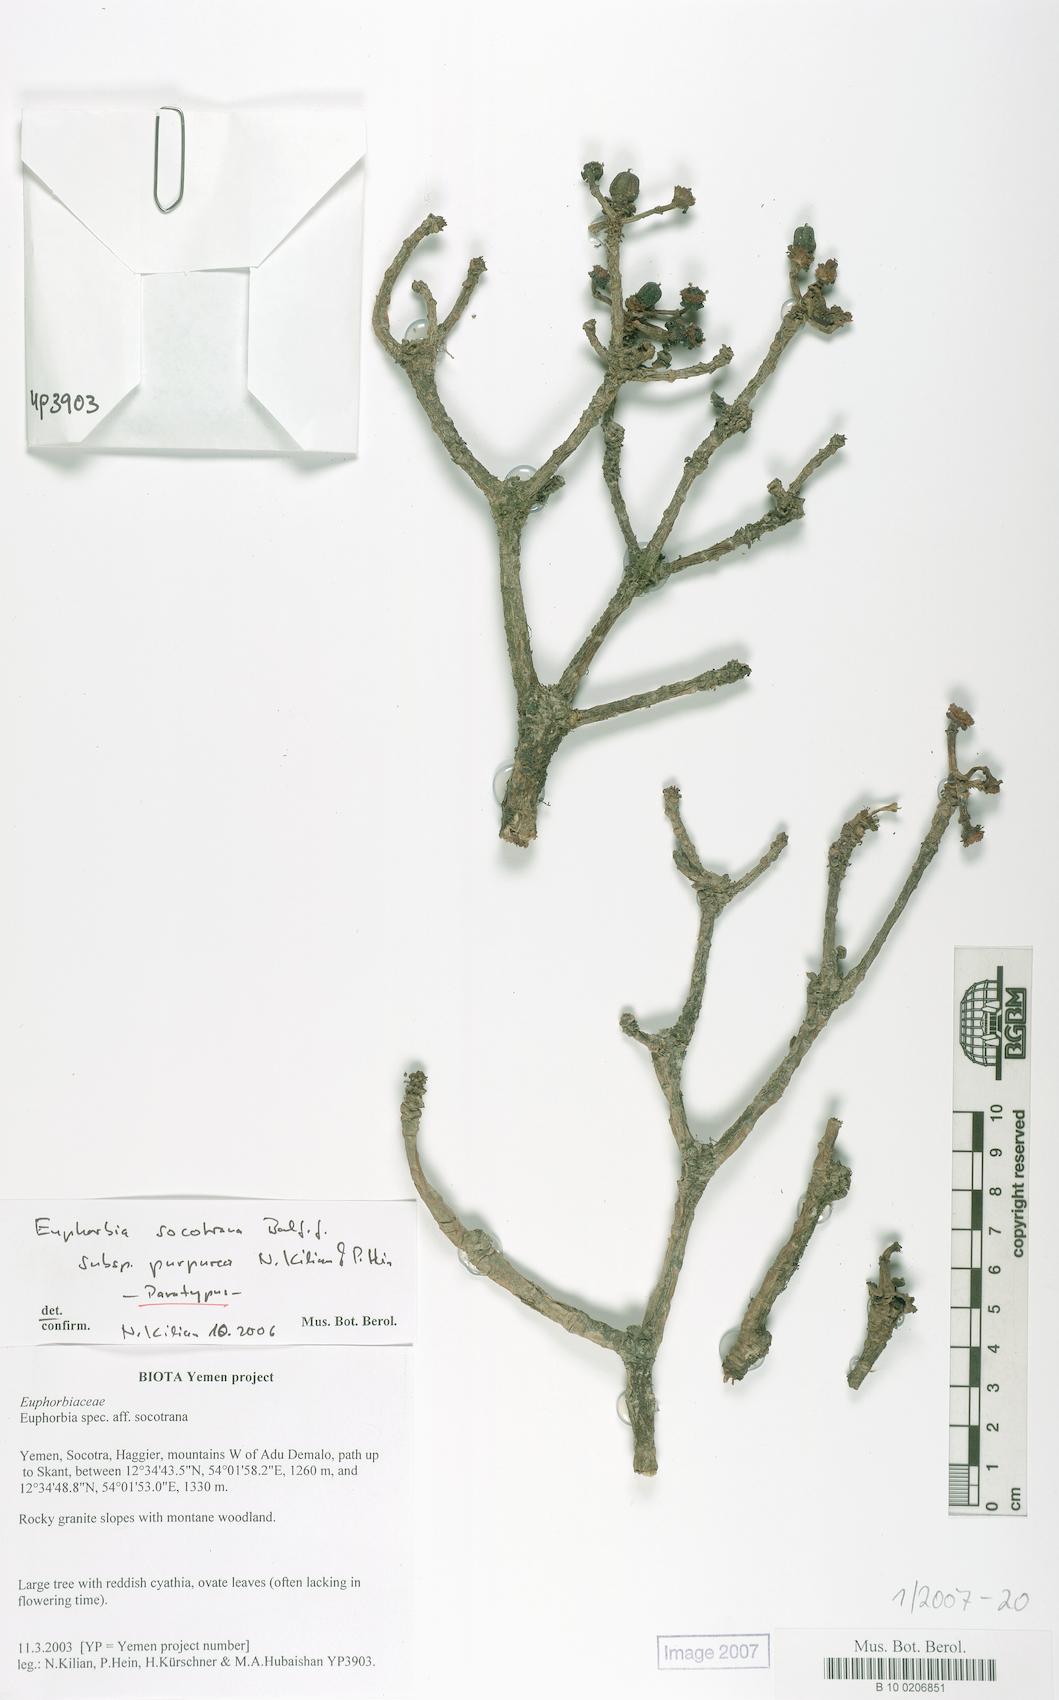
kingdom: Plantae
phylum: Tracheophyta
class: Magnoliopsida
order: Malpighiales
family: Euphorbiaceae
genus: Euphorbia
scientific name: Euphorbia socotrana
